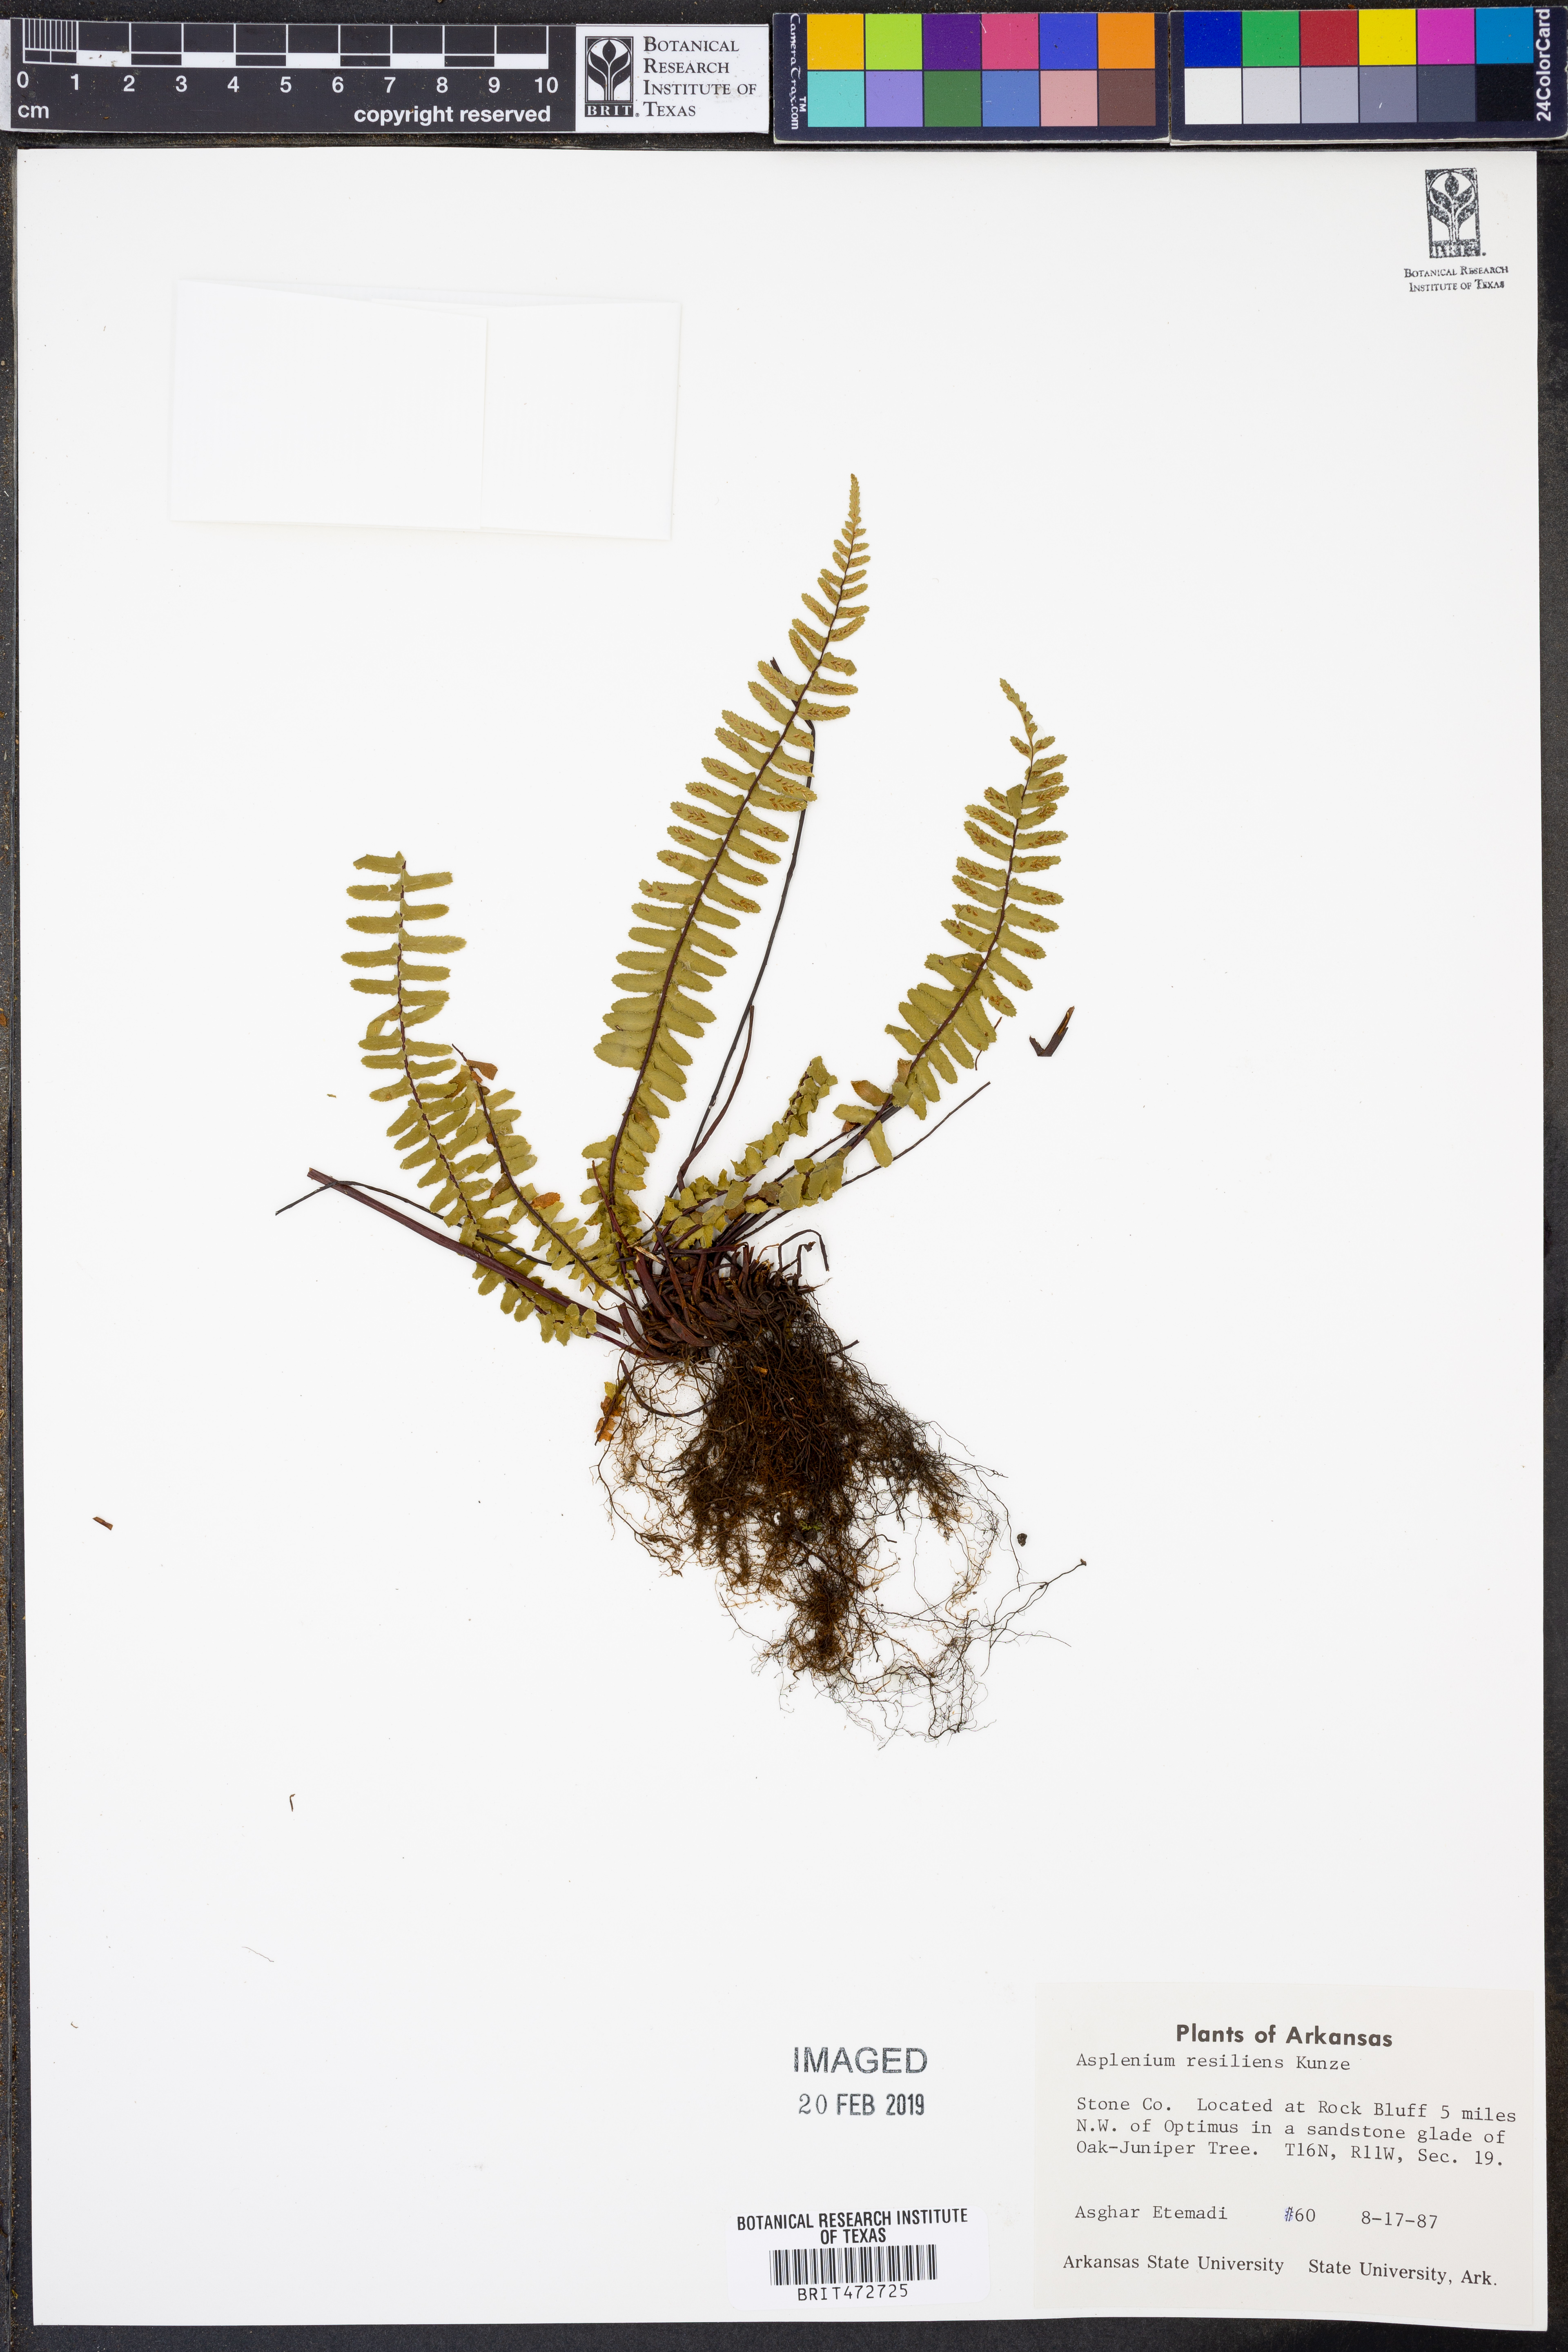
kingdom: Plantae
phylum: Tracheophyta
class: Polypodiopsida
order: Polypodiales
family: Aspleniaceae
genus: Asplenium
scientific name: Asplenium resiliens
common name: Blackstem spleenwort
